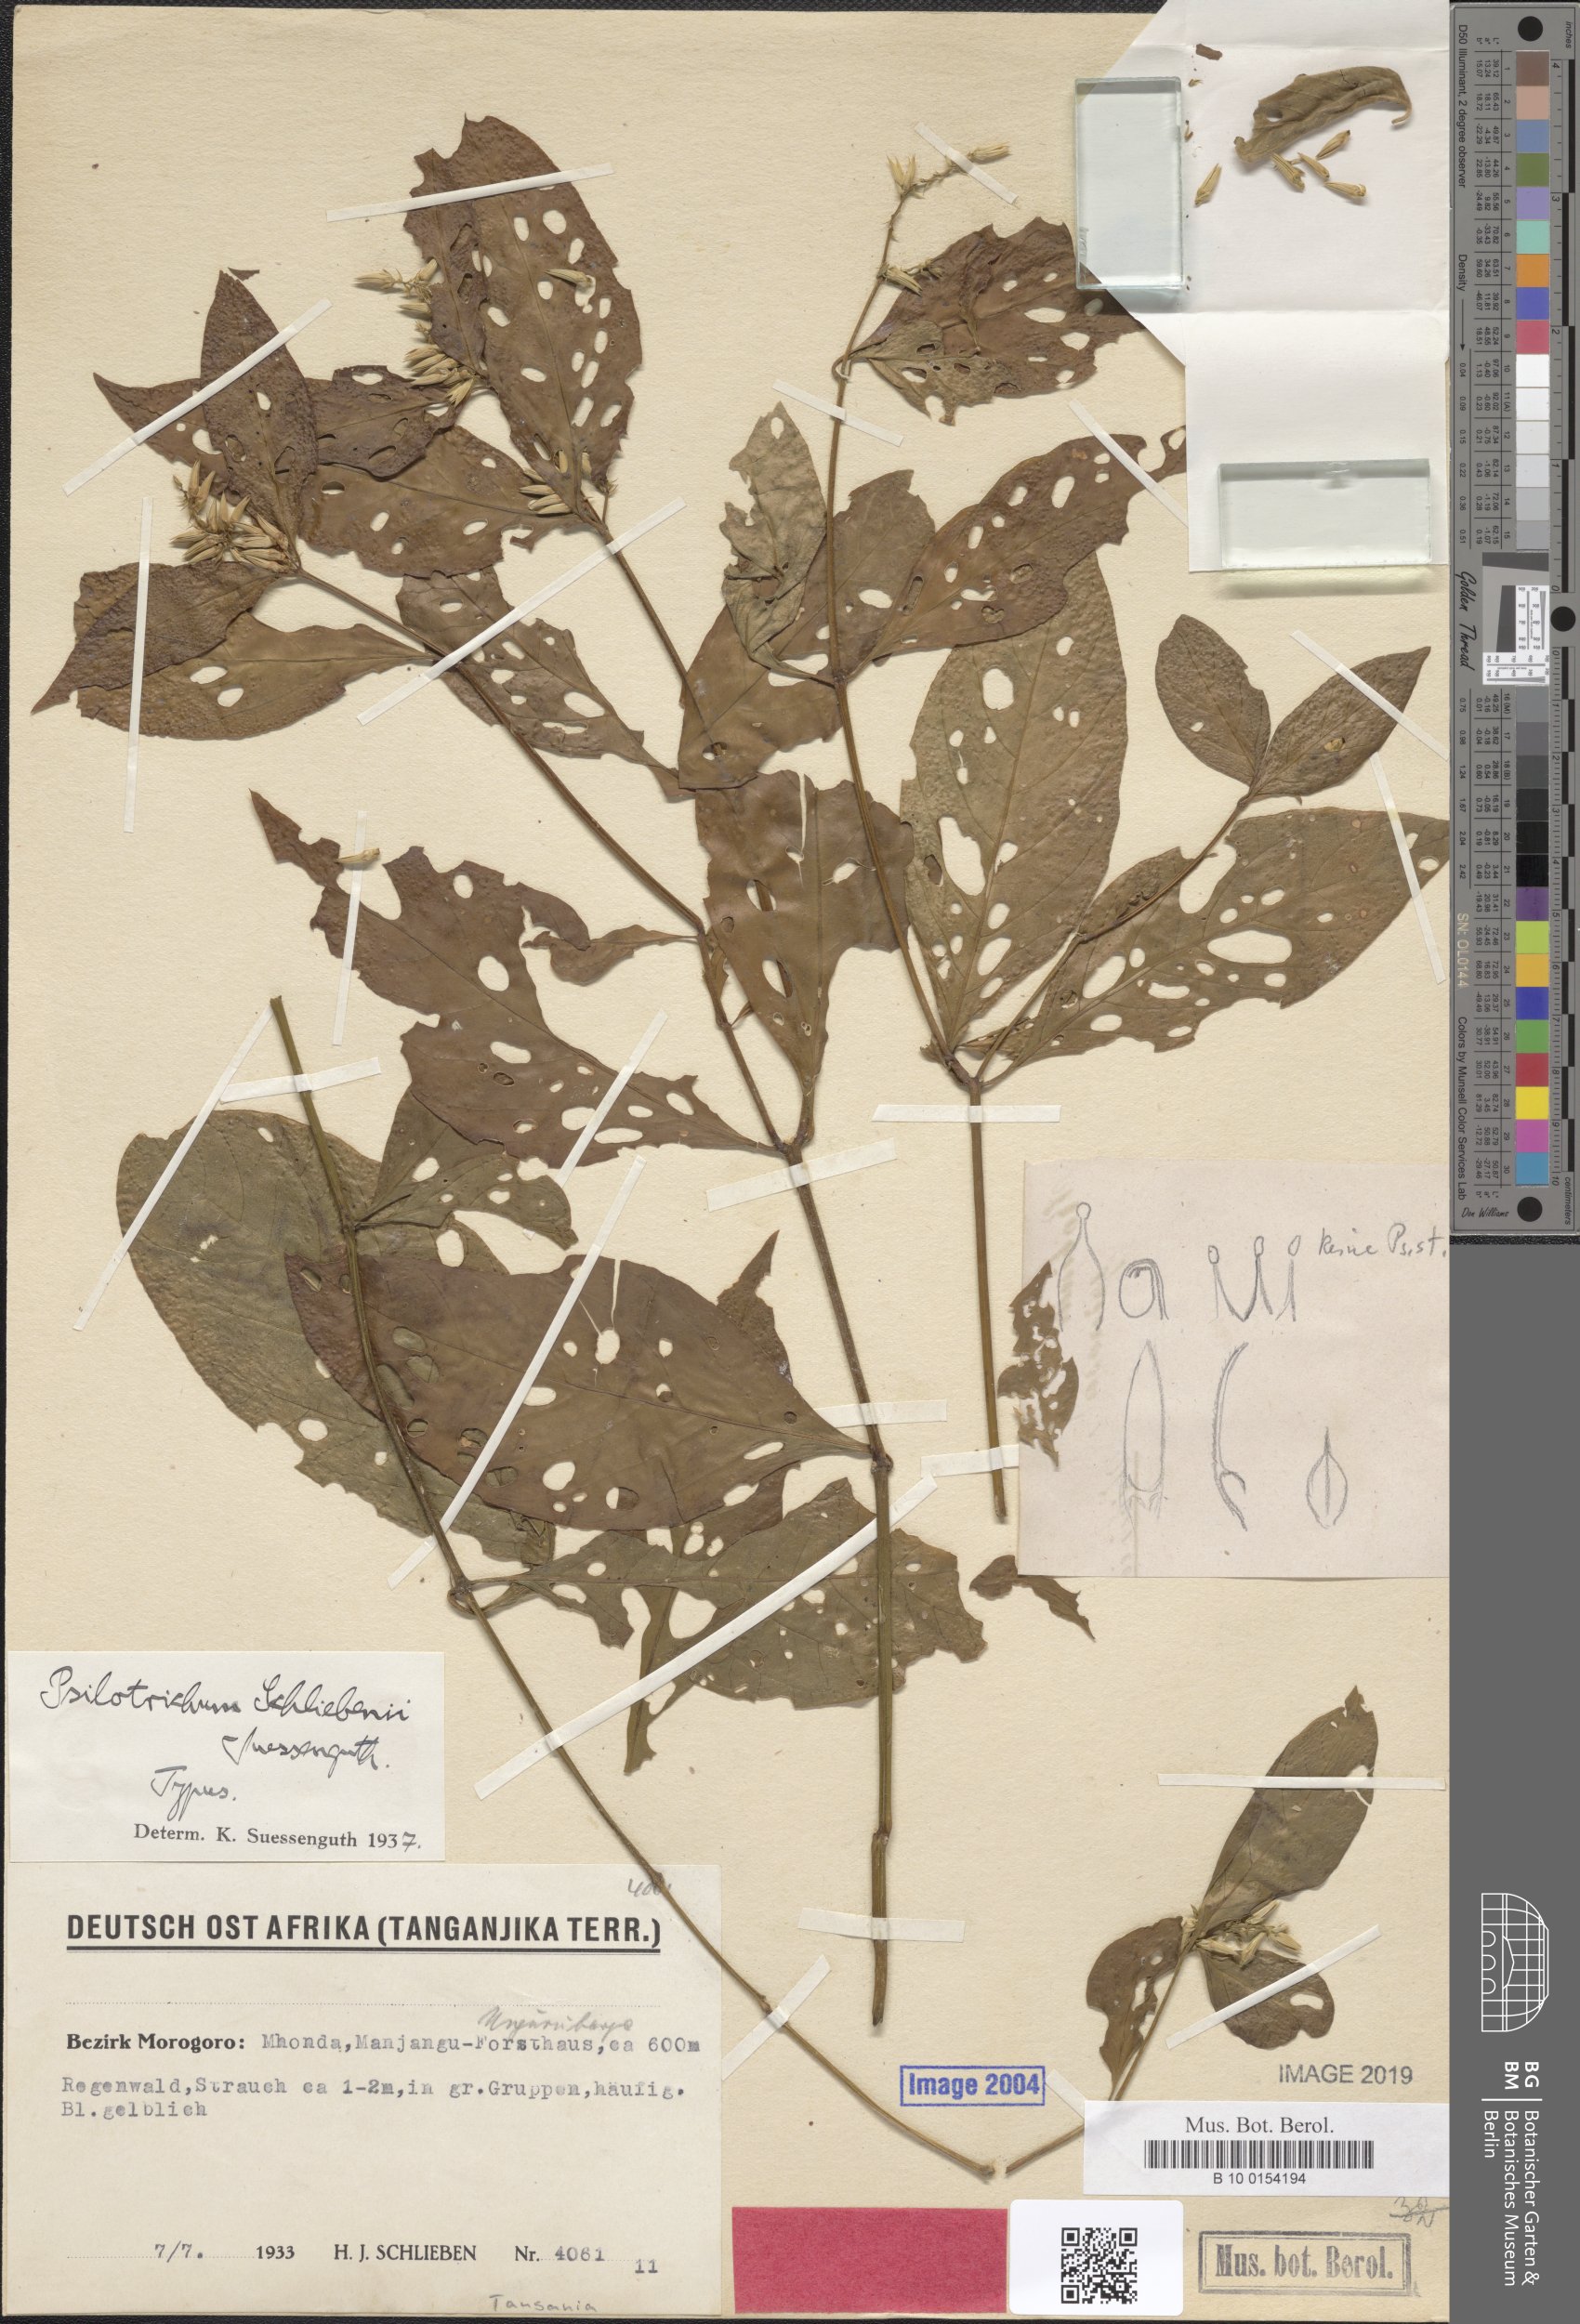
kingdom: Plantae
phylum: Tracheophyta
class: Magnoliopsida
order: Caryophyllales
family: Amaranthaceae
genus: Psilotrichum
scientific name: Psilotrichum
